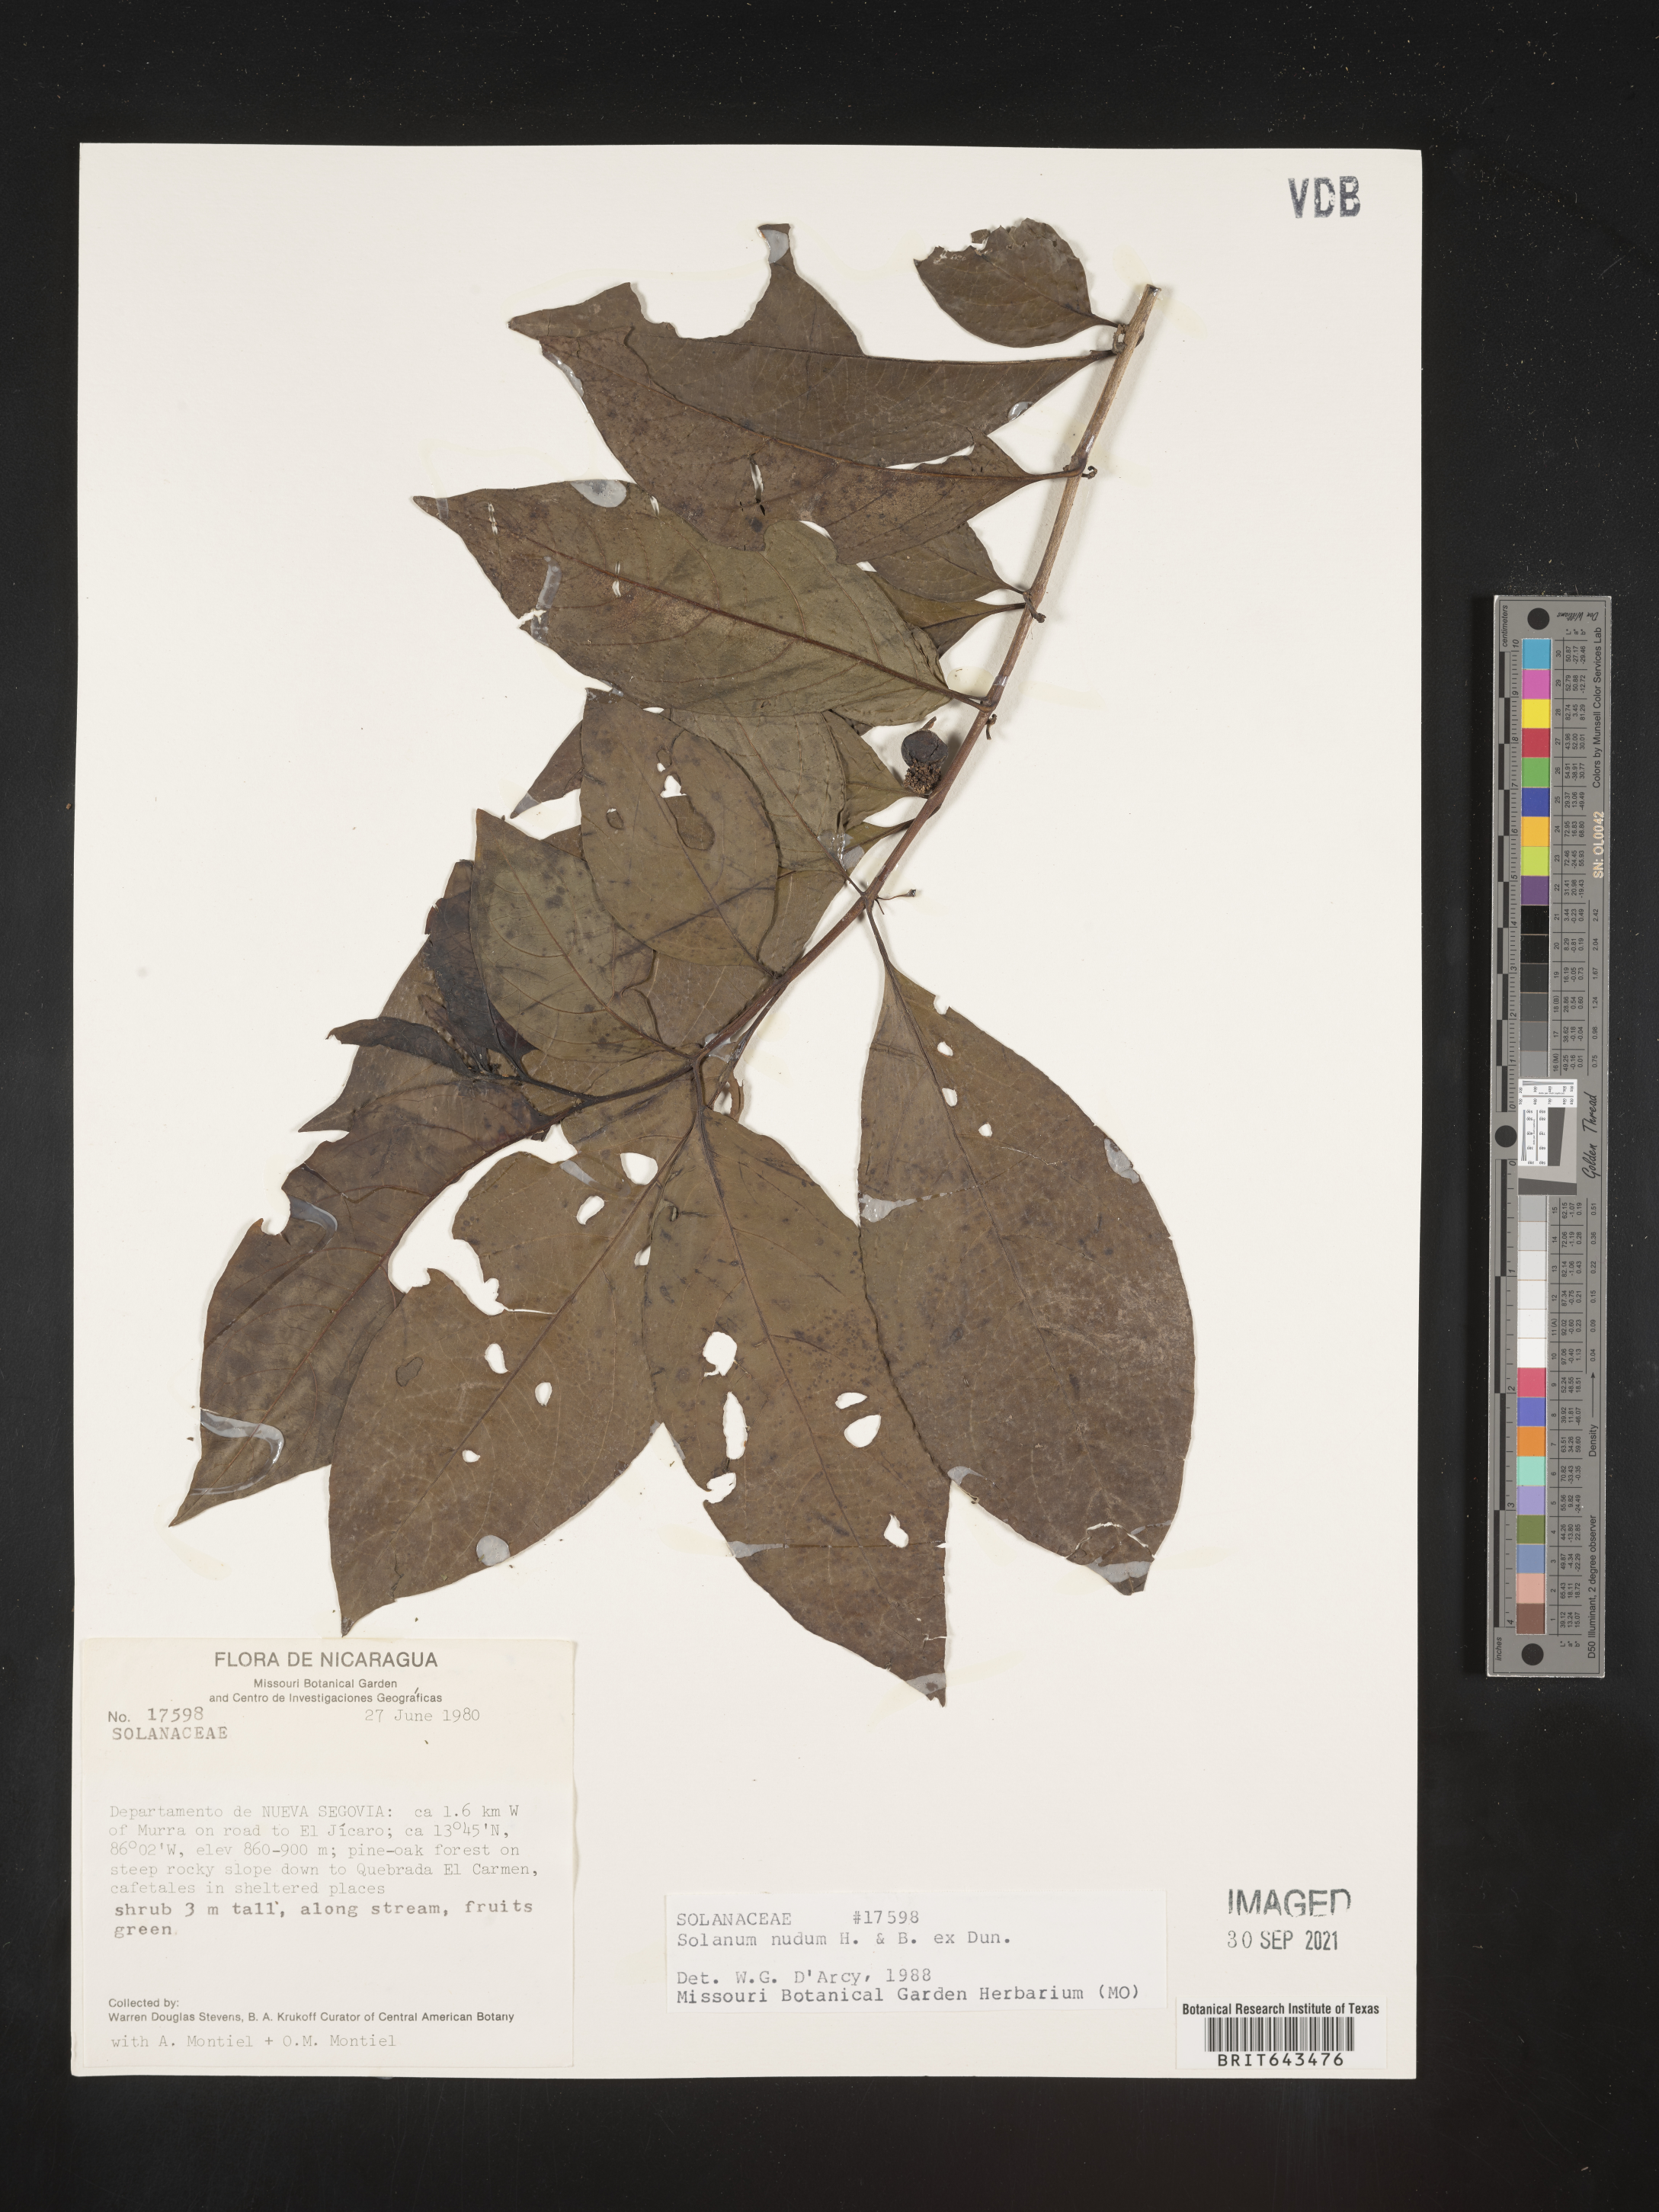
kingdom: Plantae
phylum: Tracheophyta
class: Magnoliopsida
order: Solanales
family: Solanaceae
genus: Solanum
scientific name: Solanum
